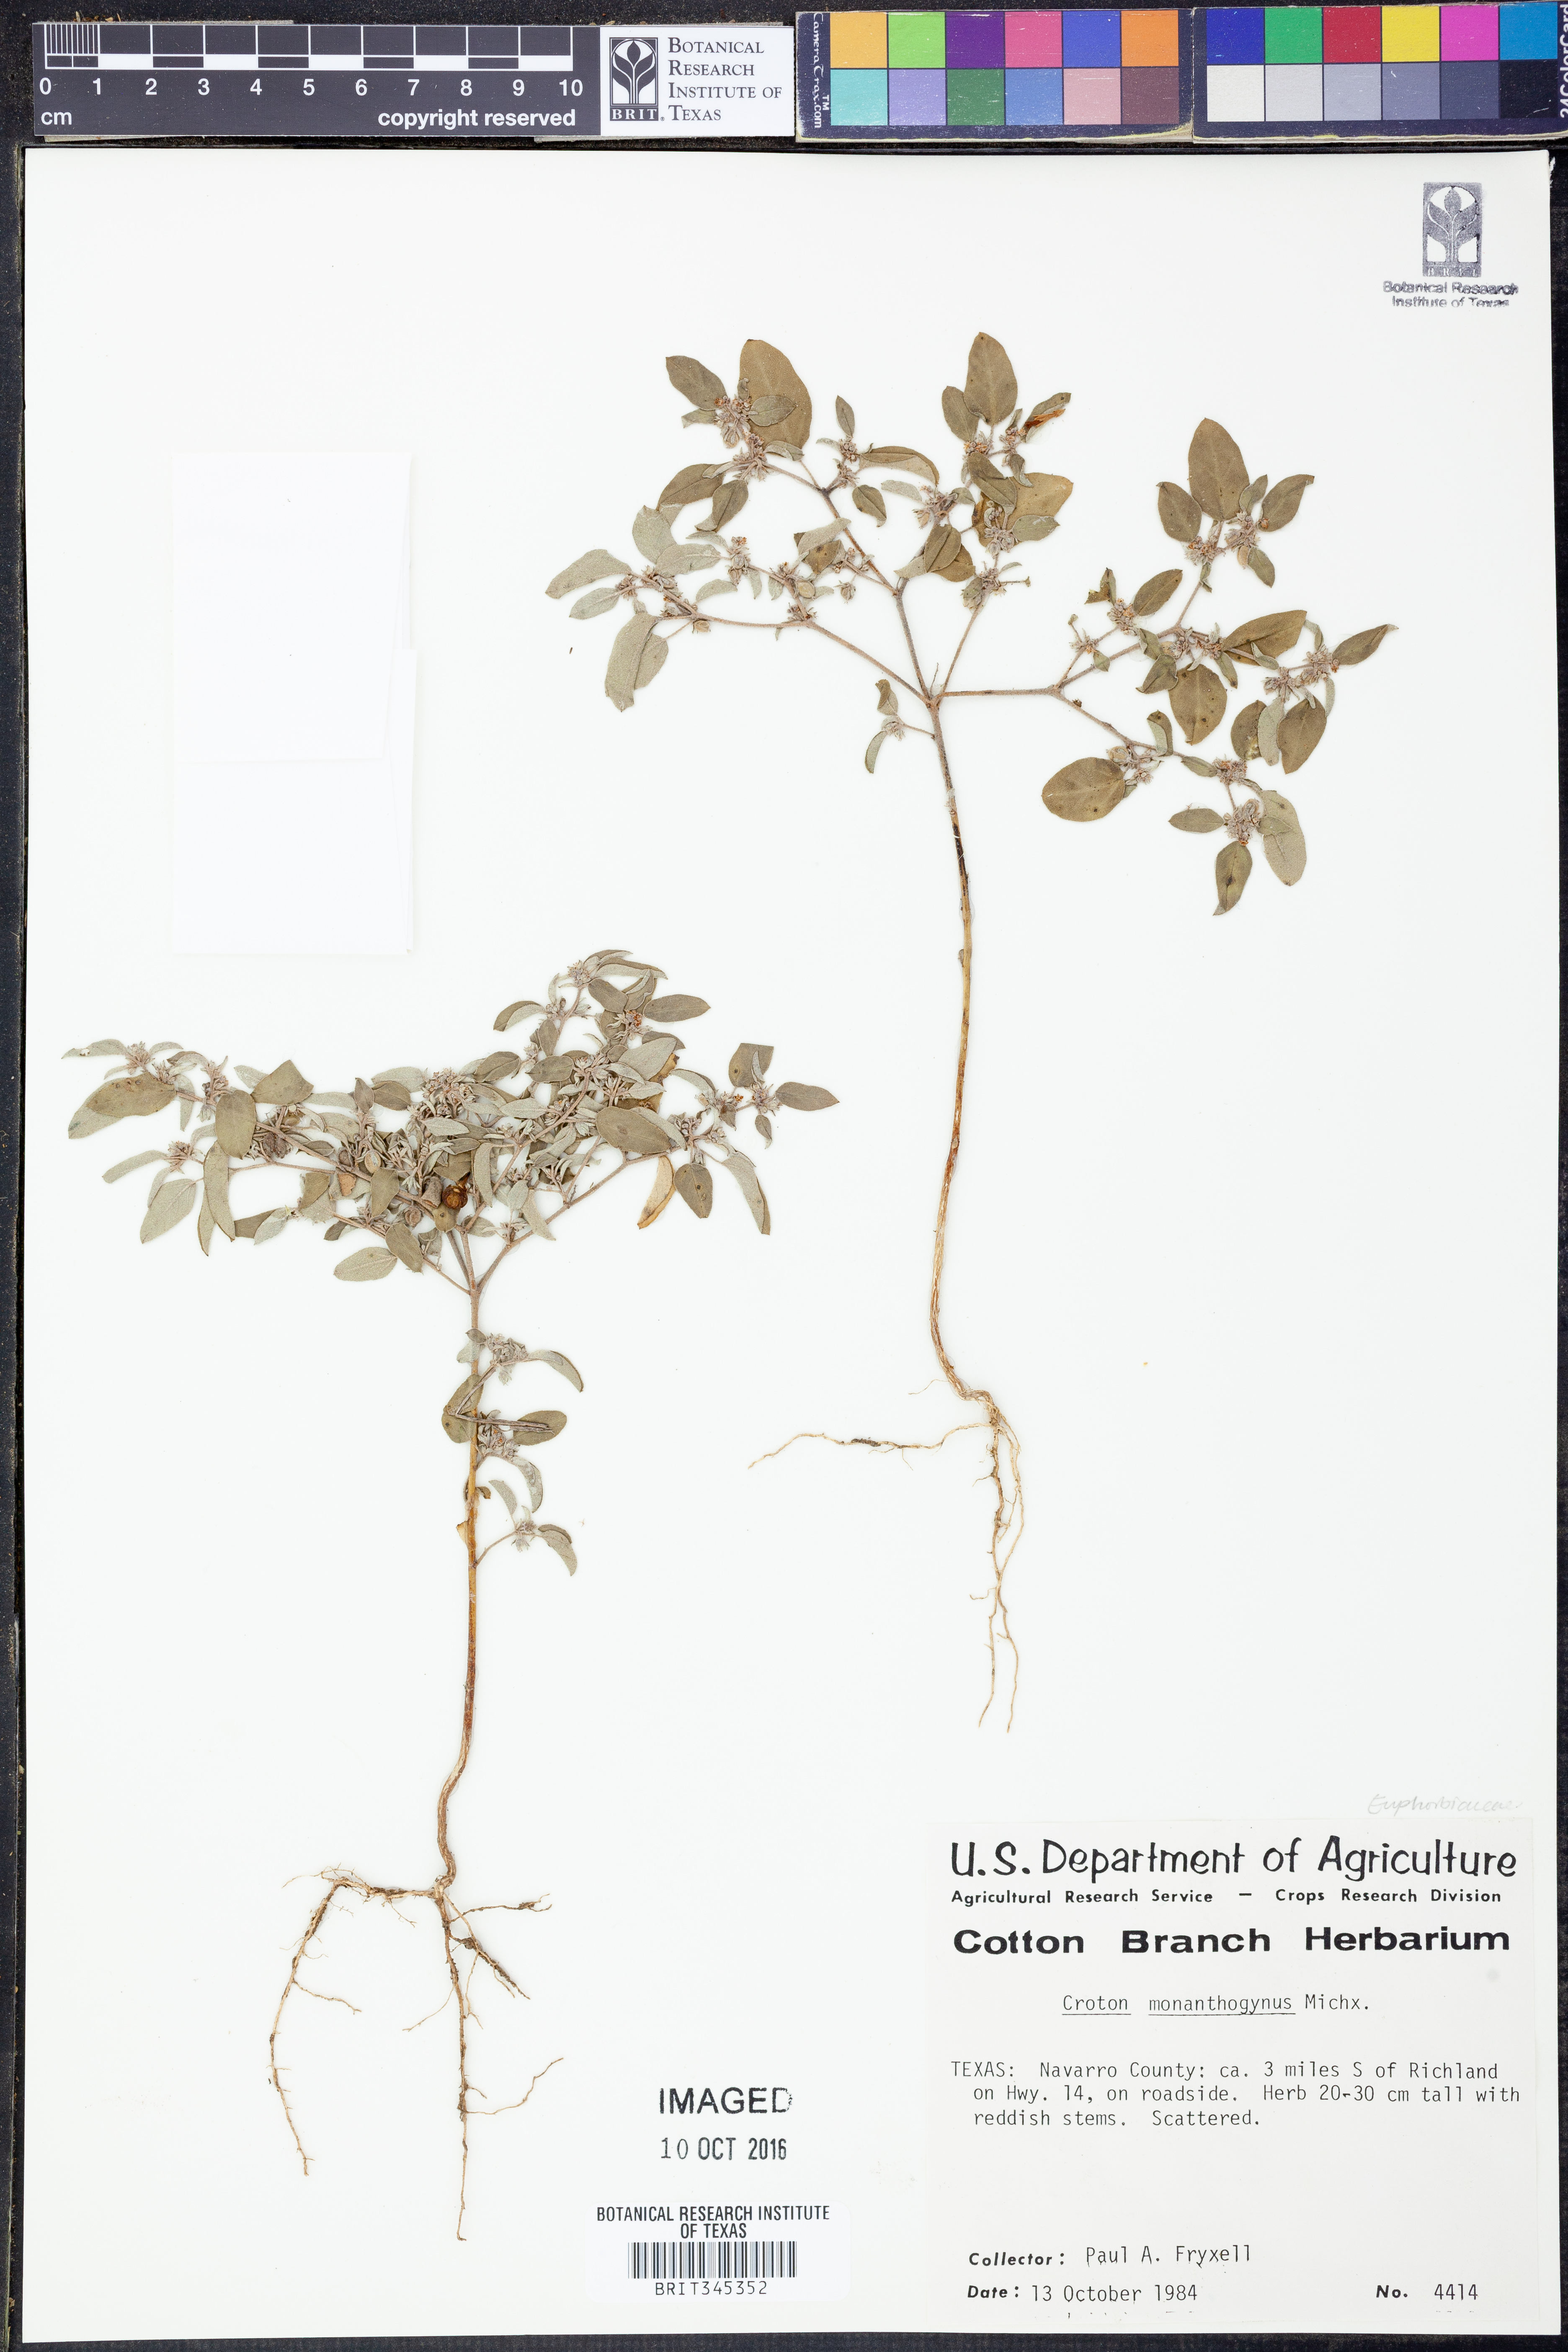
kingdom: Plantae
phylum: Tracheophyta
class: Magnoliopsida
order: Malpighiales
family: Euphorbiaceae
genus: Croton
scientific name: Croton monanthogynus
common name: One-seed croton
